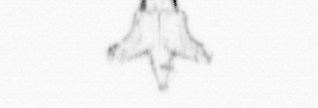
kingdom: Animalia
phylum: Cnidaria
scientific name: Cnidaria
